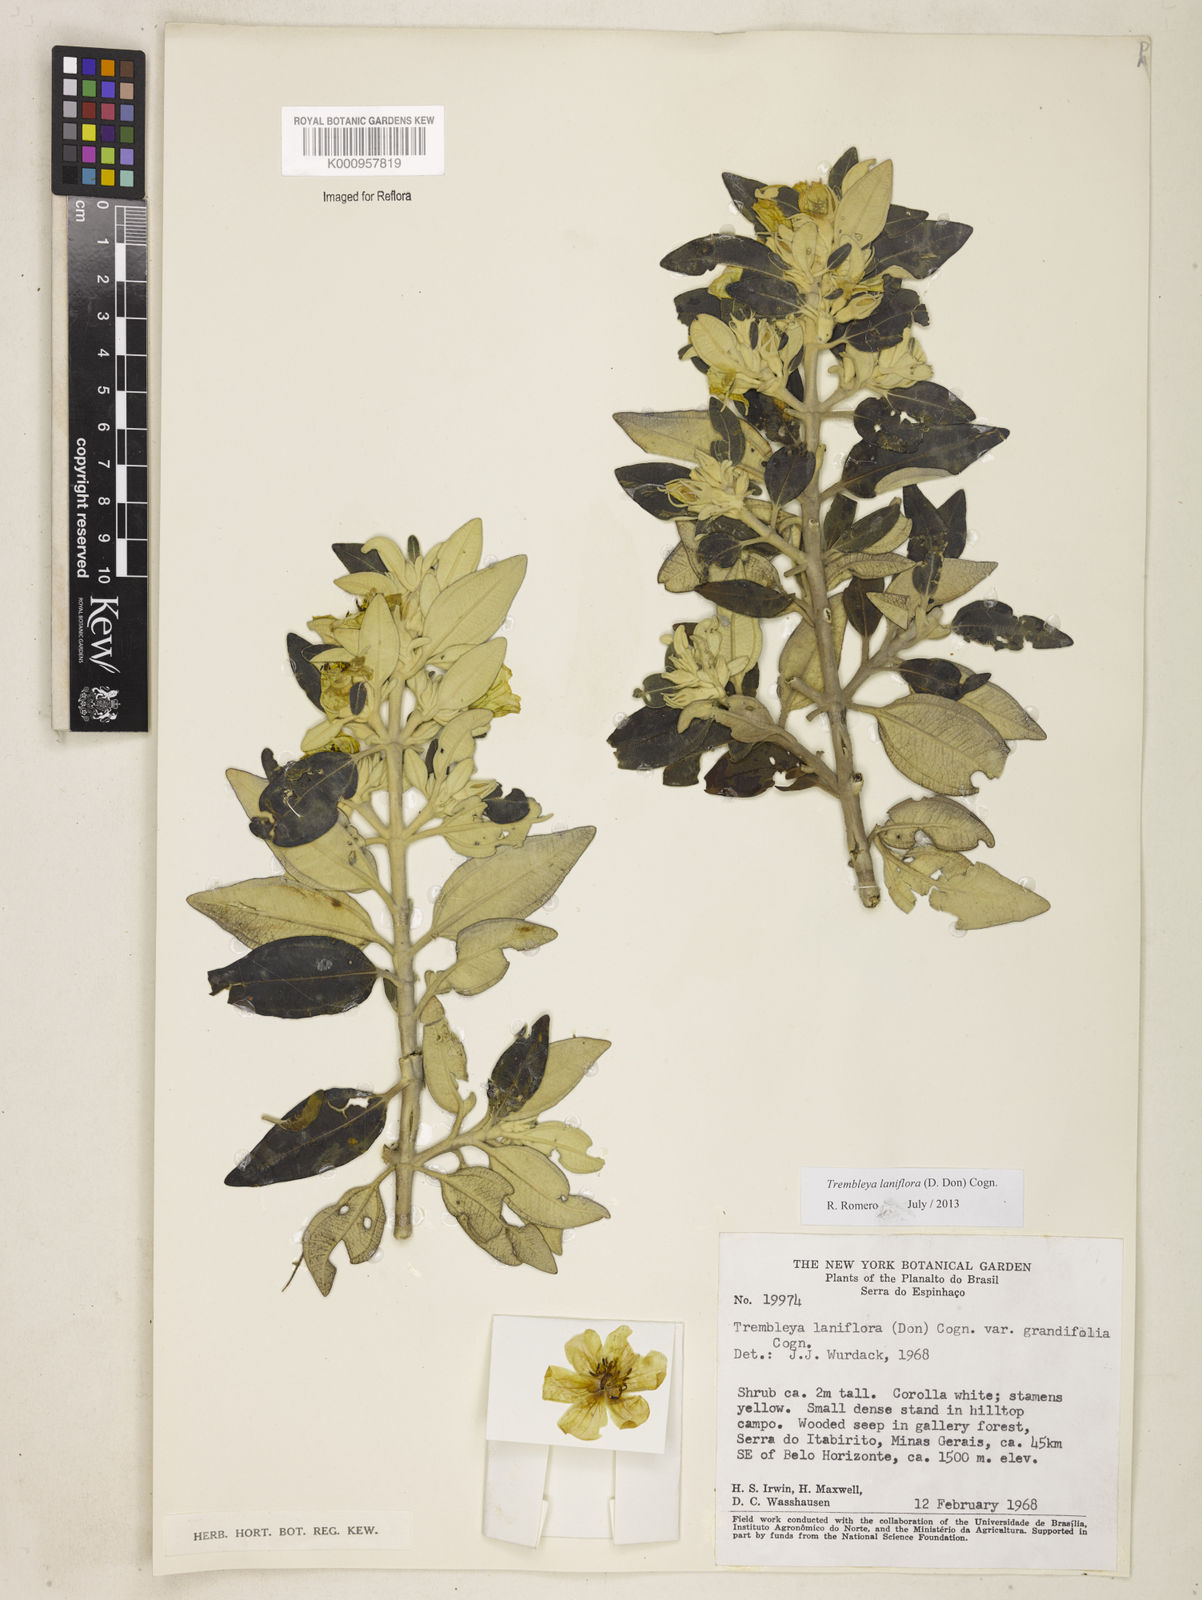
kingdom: Plantae
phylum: Tracheophyta
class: Magnoliopsida
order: Myrtales
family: Melastomataceae
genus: Microlicia
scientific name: Microlicia laniflora
